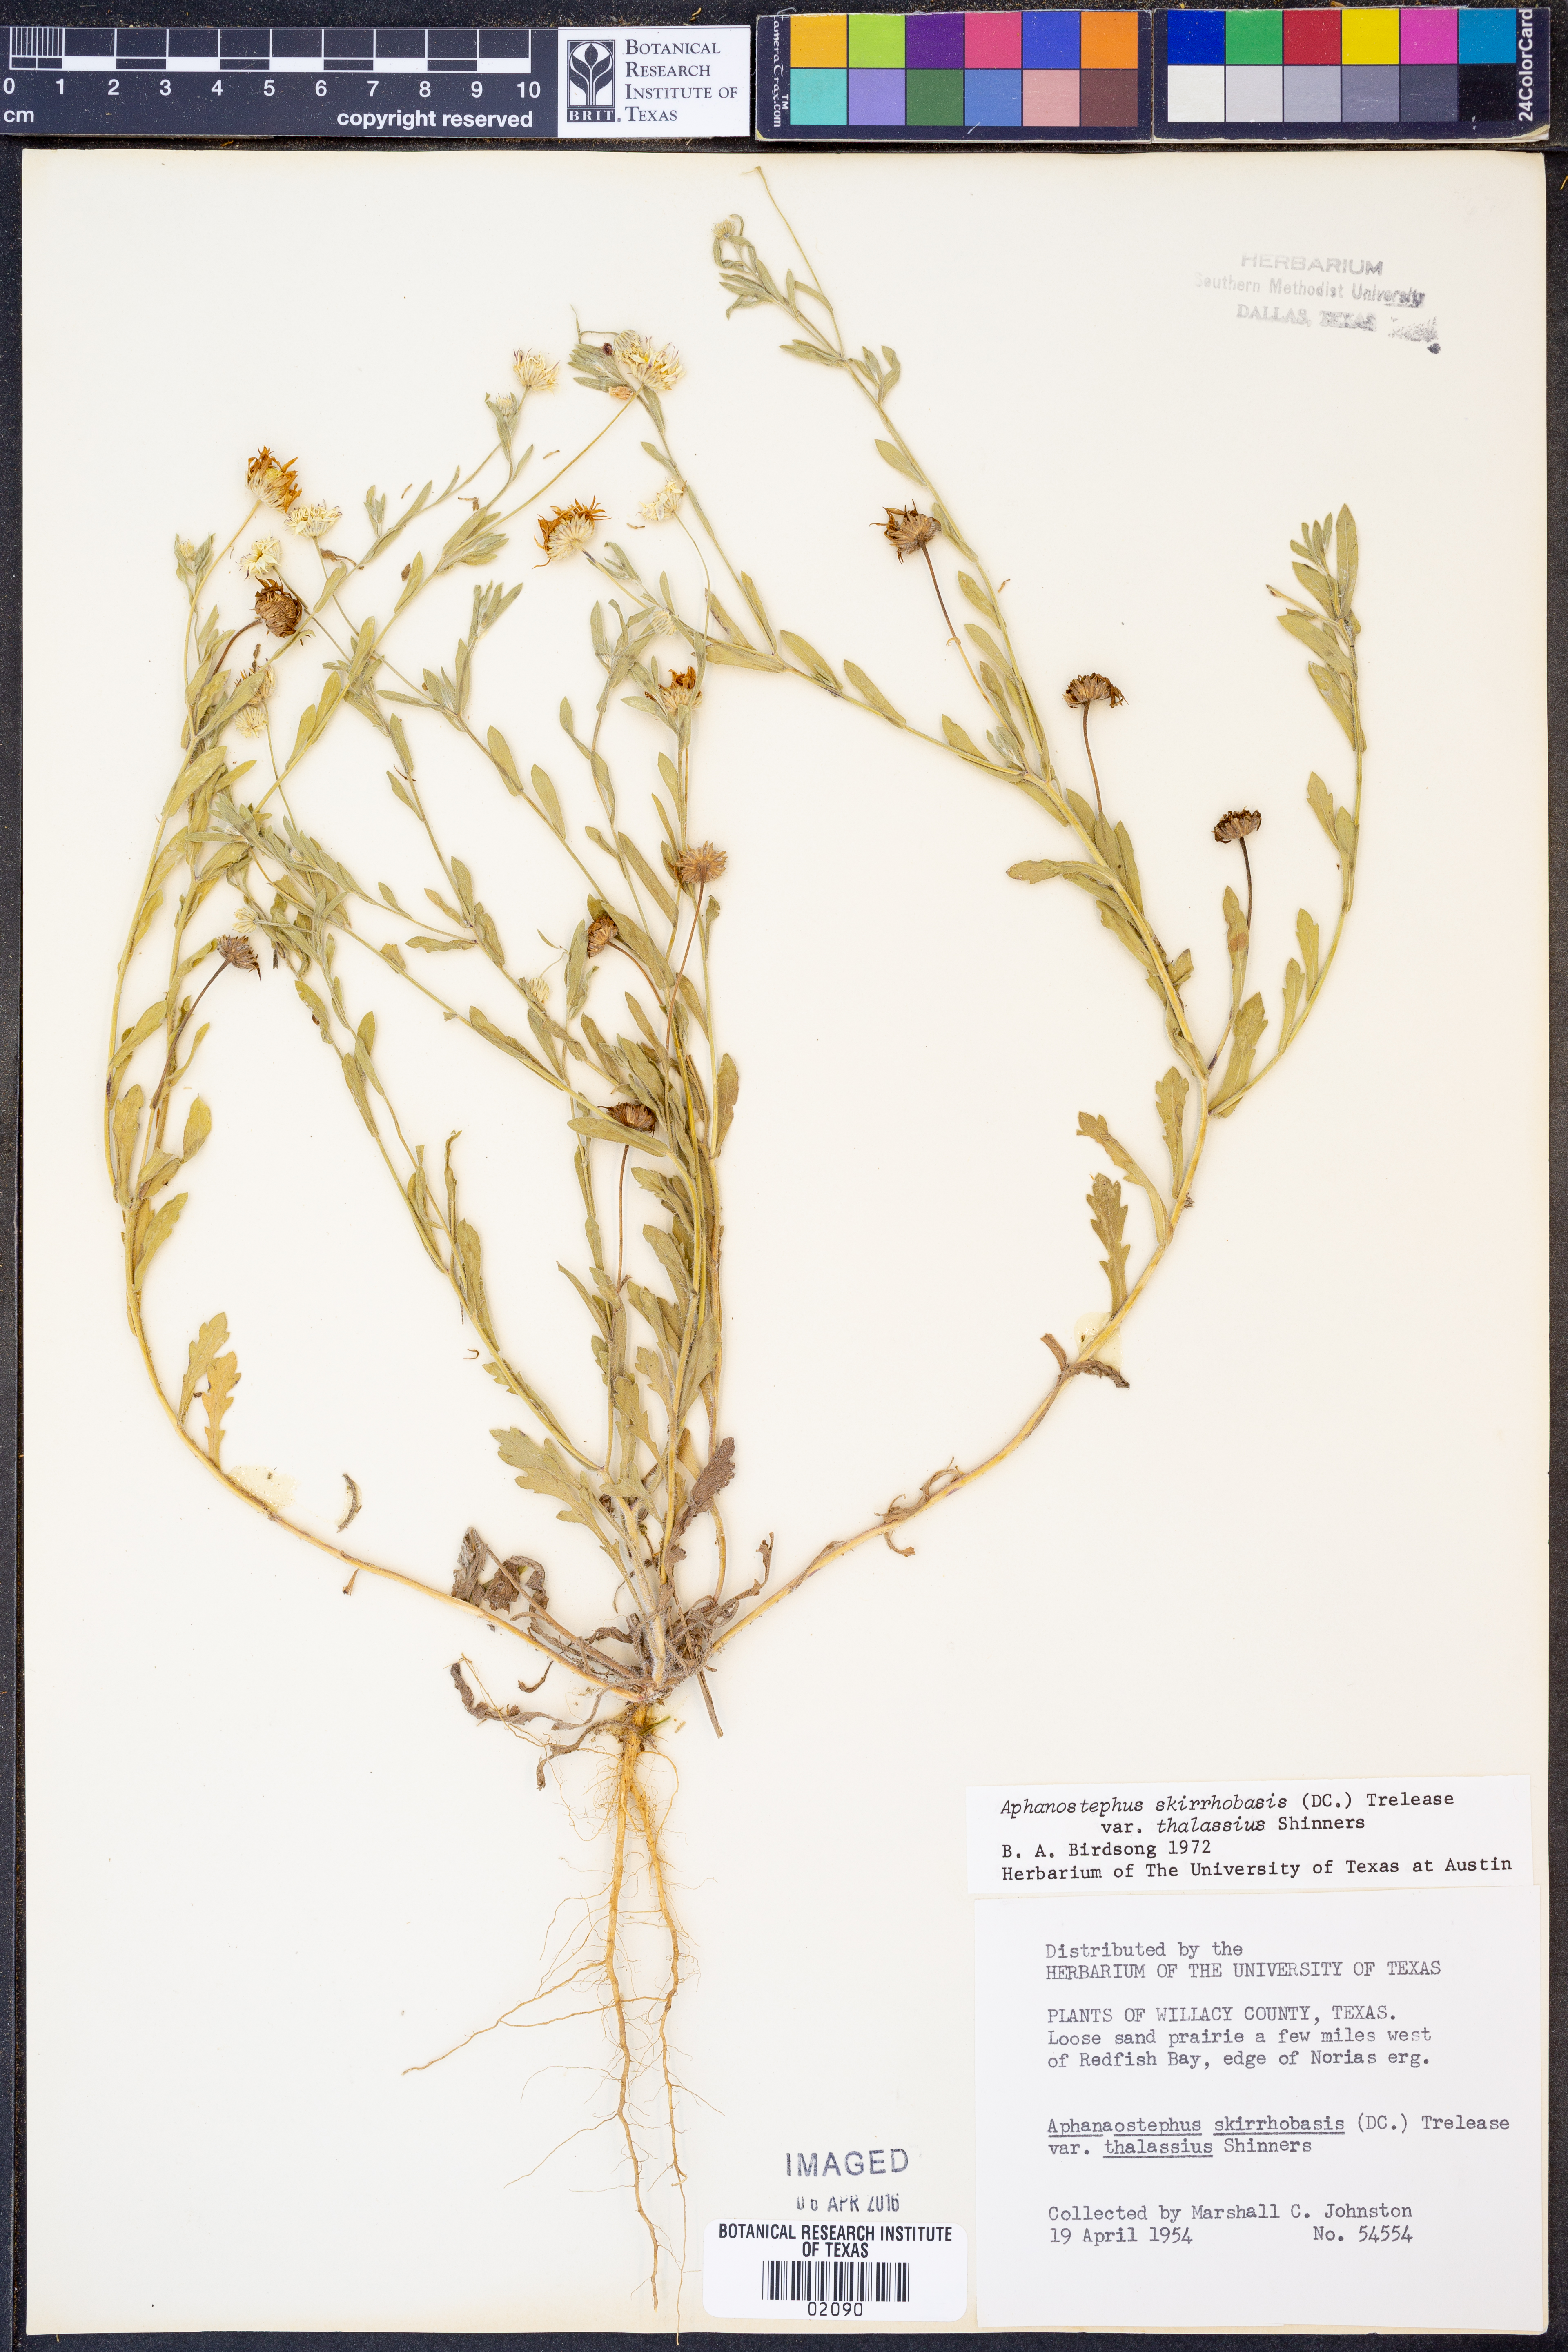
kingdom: Plantae
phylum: Tracheophyta
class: Magnoliopsida
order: Asterales
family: Asteraceae
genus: Aphanostephus
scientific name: Aphanostephus skirrhobasis
